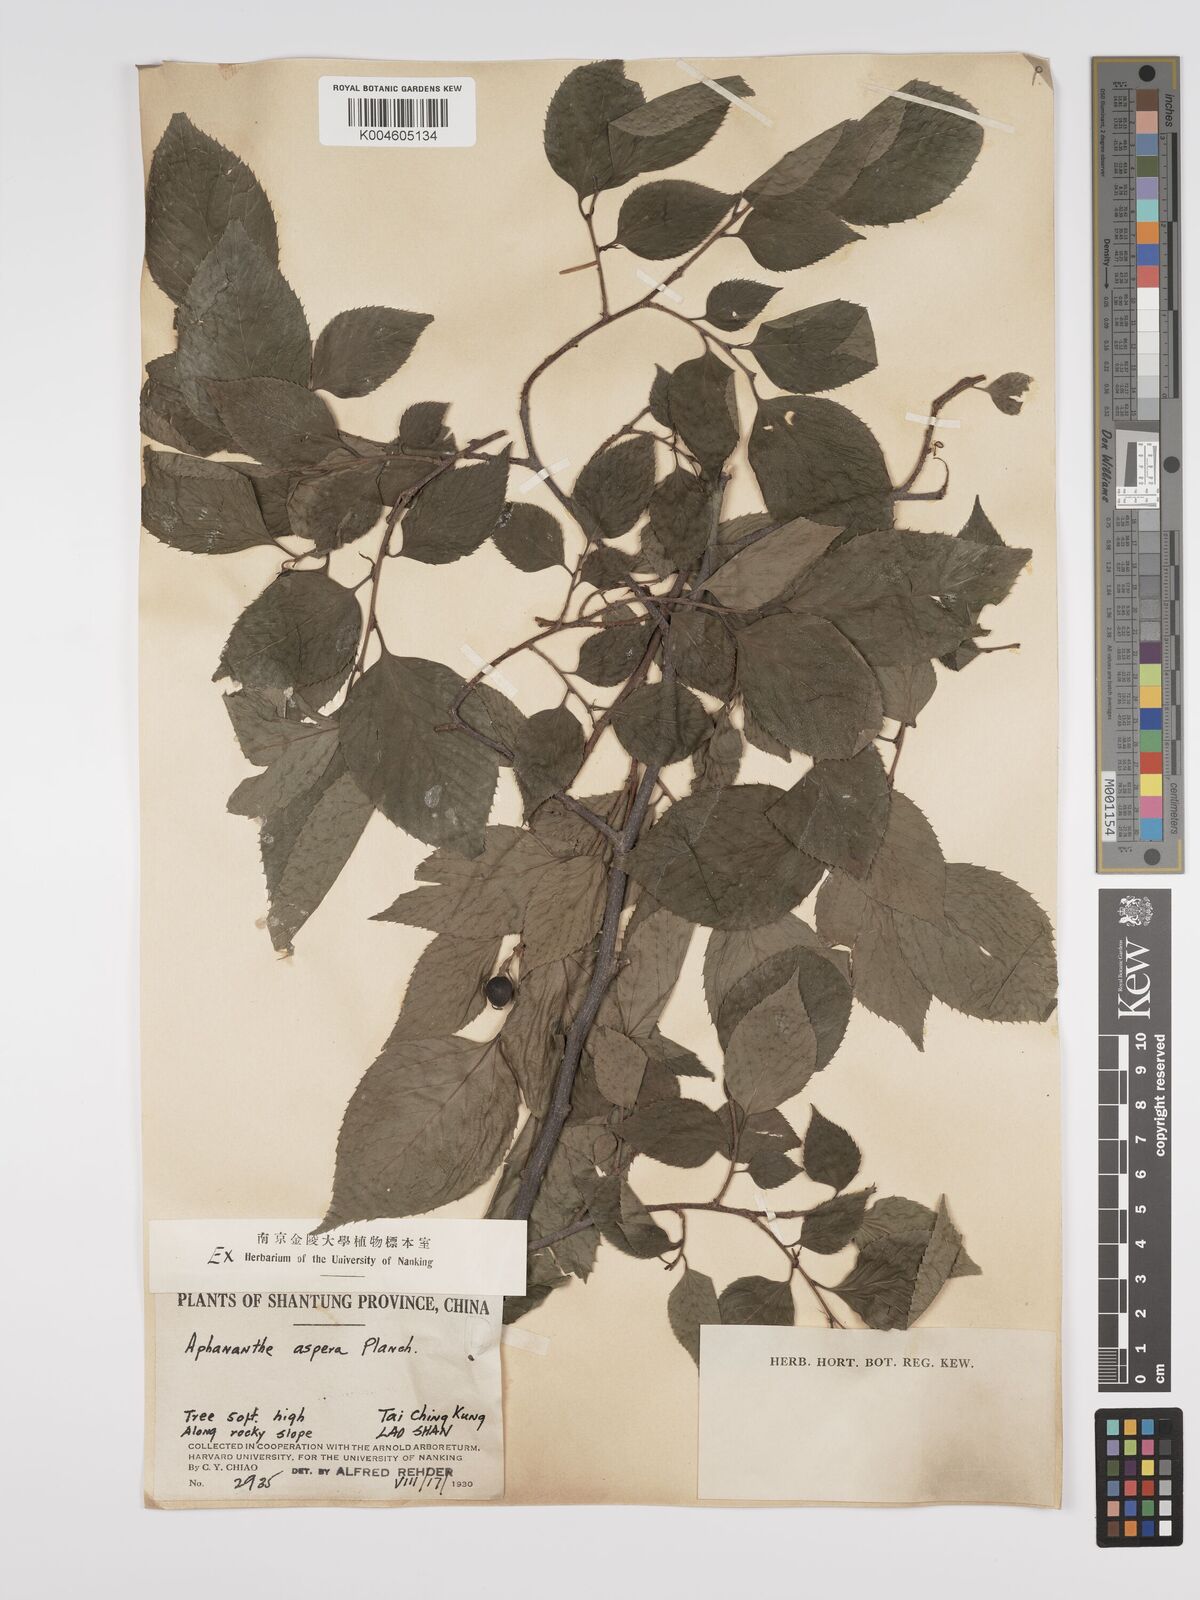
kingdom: Plantae
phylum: Tracheophyta
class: Magnoliopsida
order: Rosales
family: Cannabaceae
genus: Aphananthe
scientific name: Aphananthe aspera
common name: Mukutree
